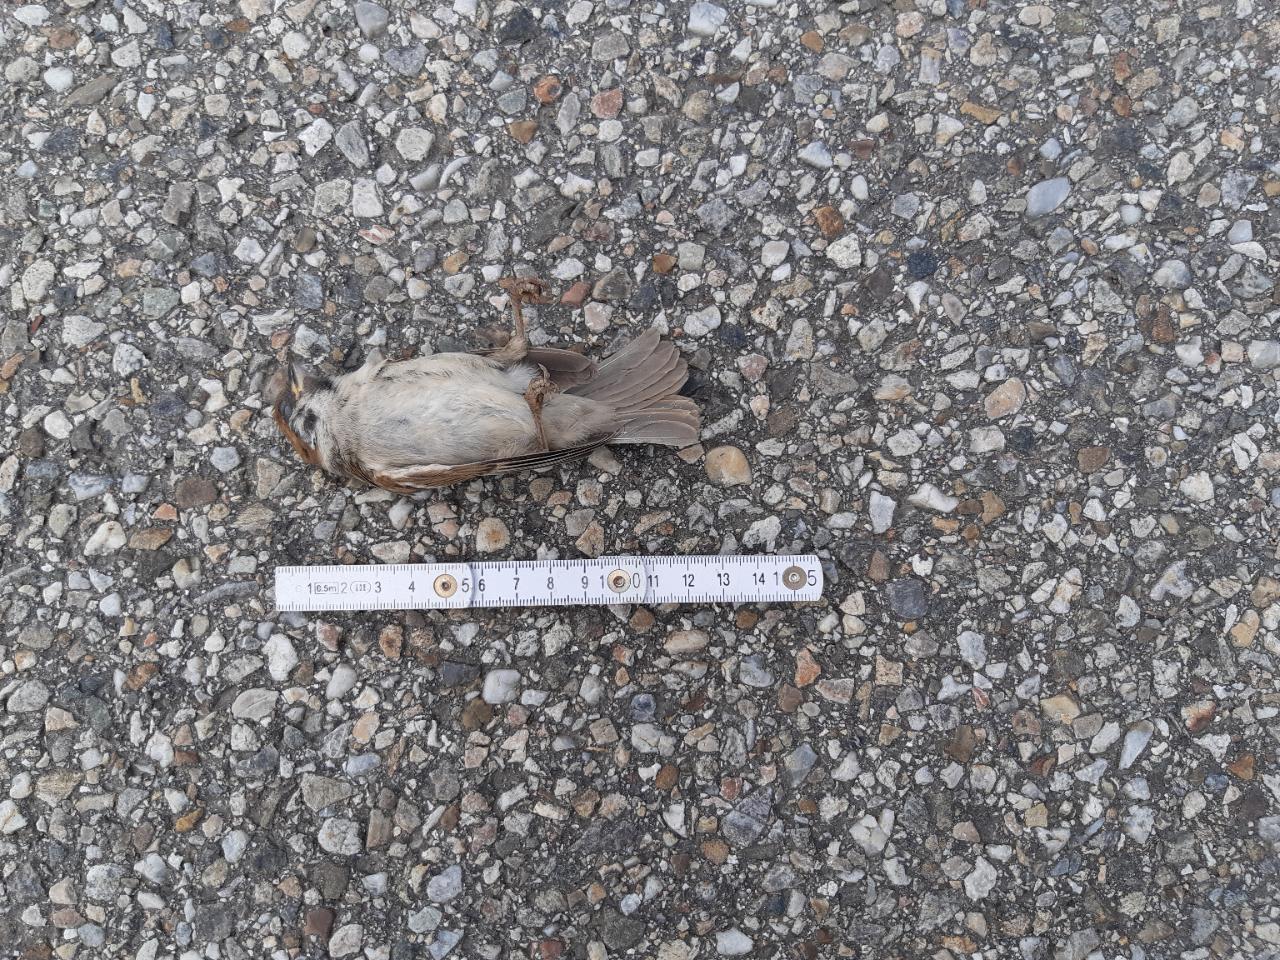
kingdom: Animalia
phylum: Chordata
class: Aves
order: Passeriformes
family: Passeridae
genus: Passer
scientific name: Passer montanus
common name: Eurasian tree sparrow
